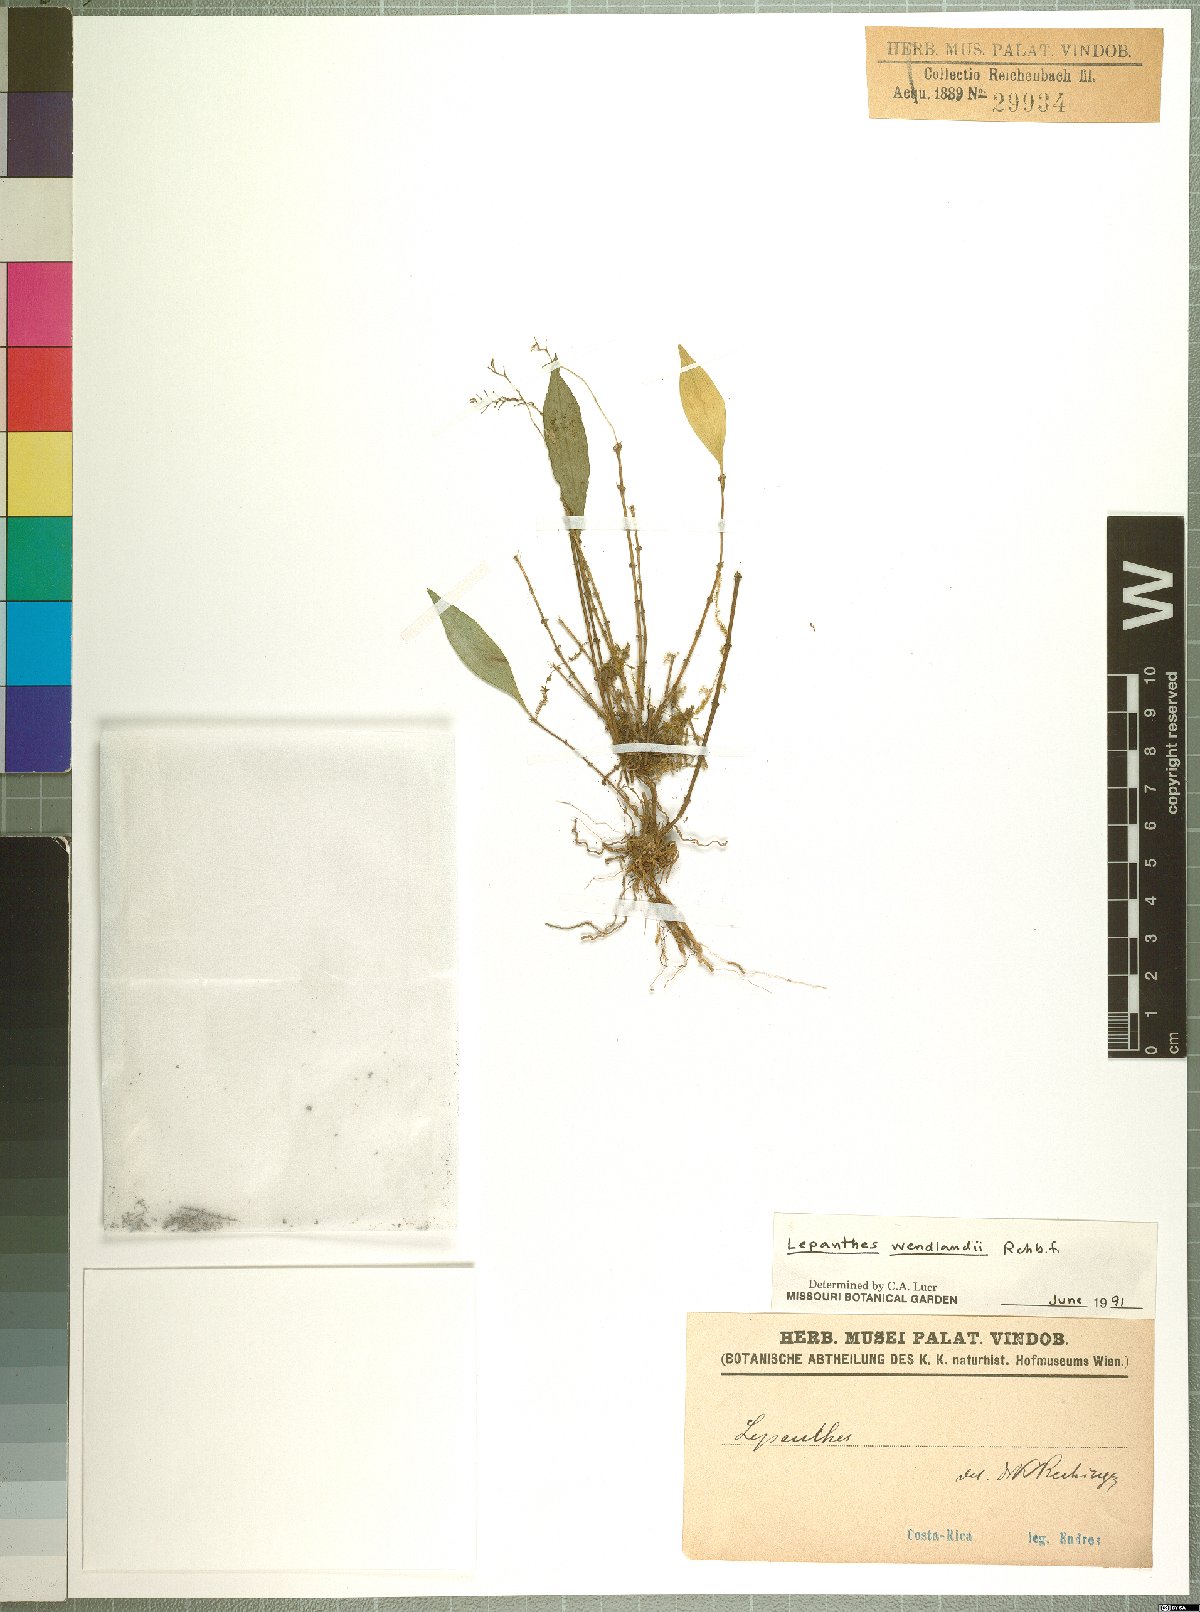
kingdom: Plantae
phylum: Tracheophyta
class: Liliopsida
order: Asparagales
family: Orchidaceae
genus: Lepanthes
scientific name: Lepanthes wendlandii
